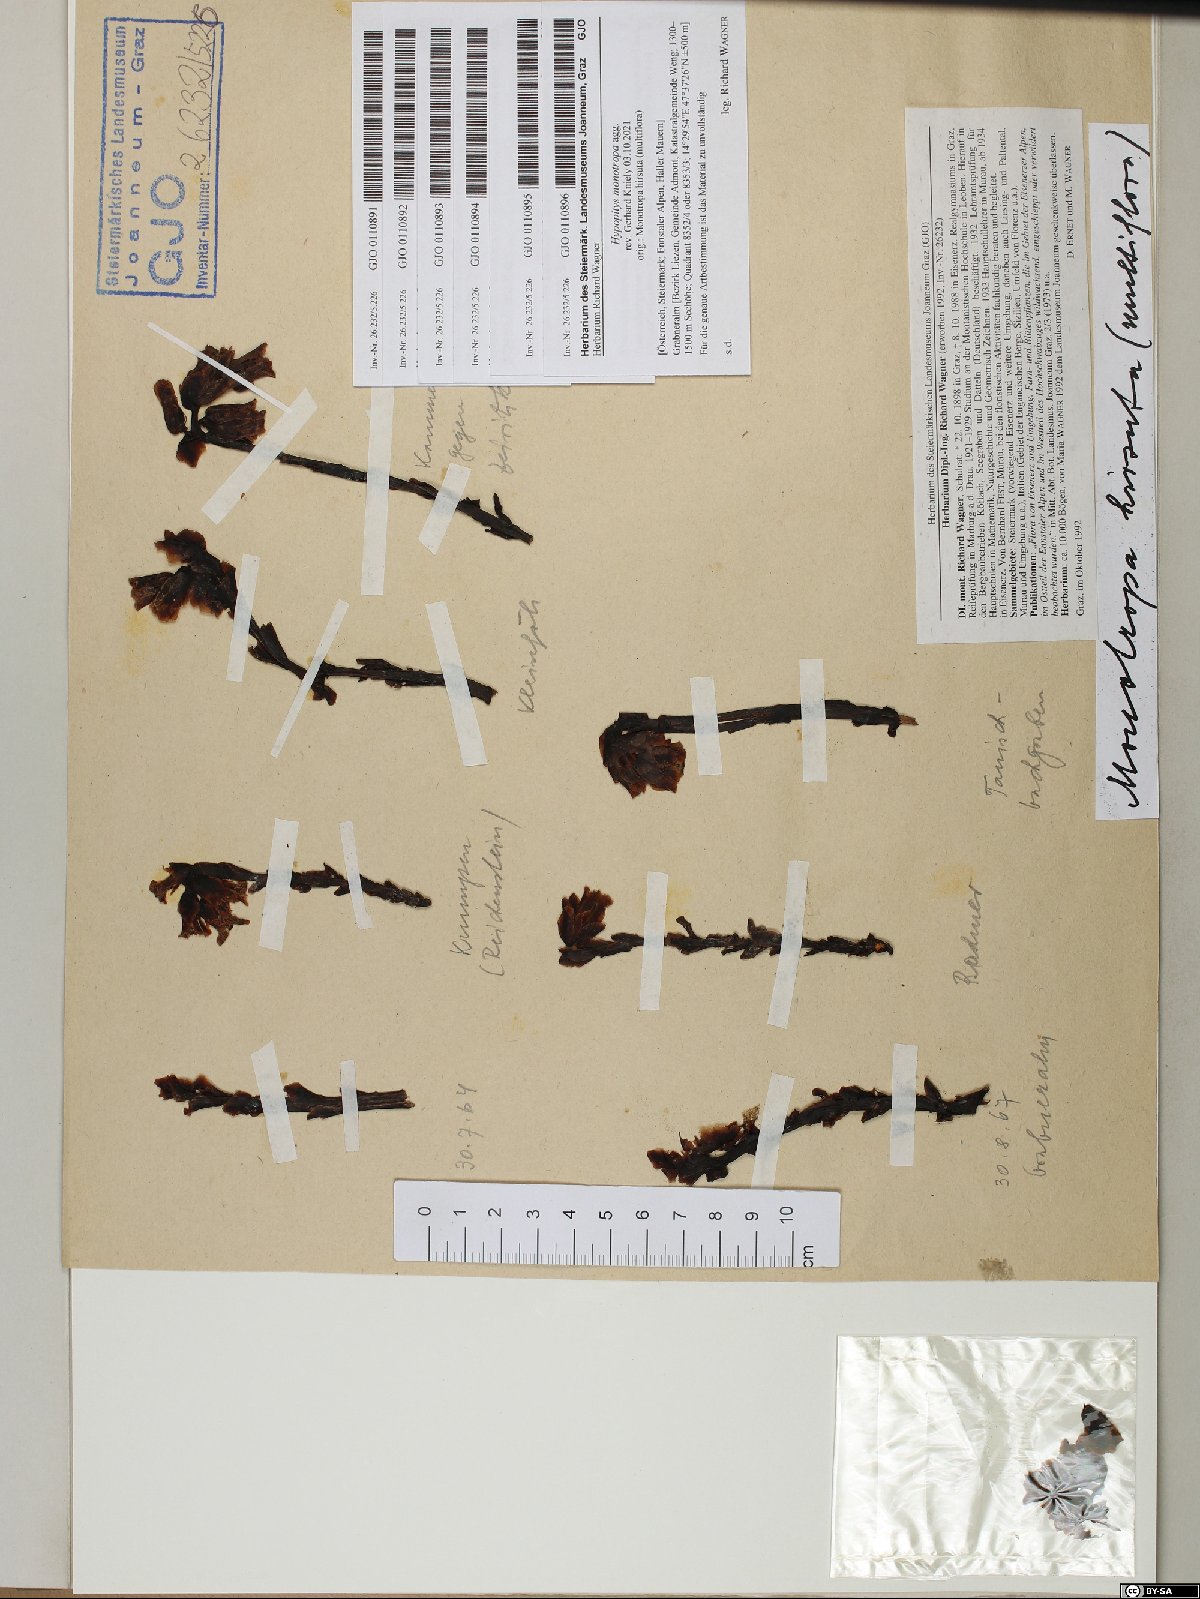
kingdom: Plantae
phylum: Tracheophyta
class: Magnoliopsida
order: Ericales
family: Ericaceae
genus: Hypopitys
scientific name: Hypopitys monotropa
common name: Yellow bird's-nest
